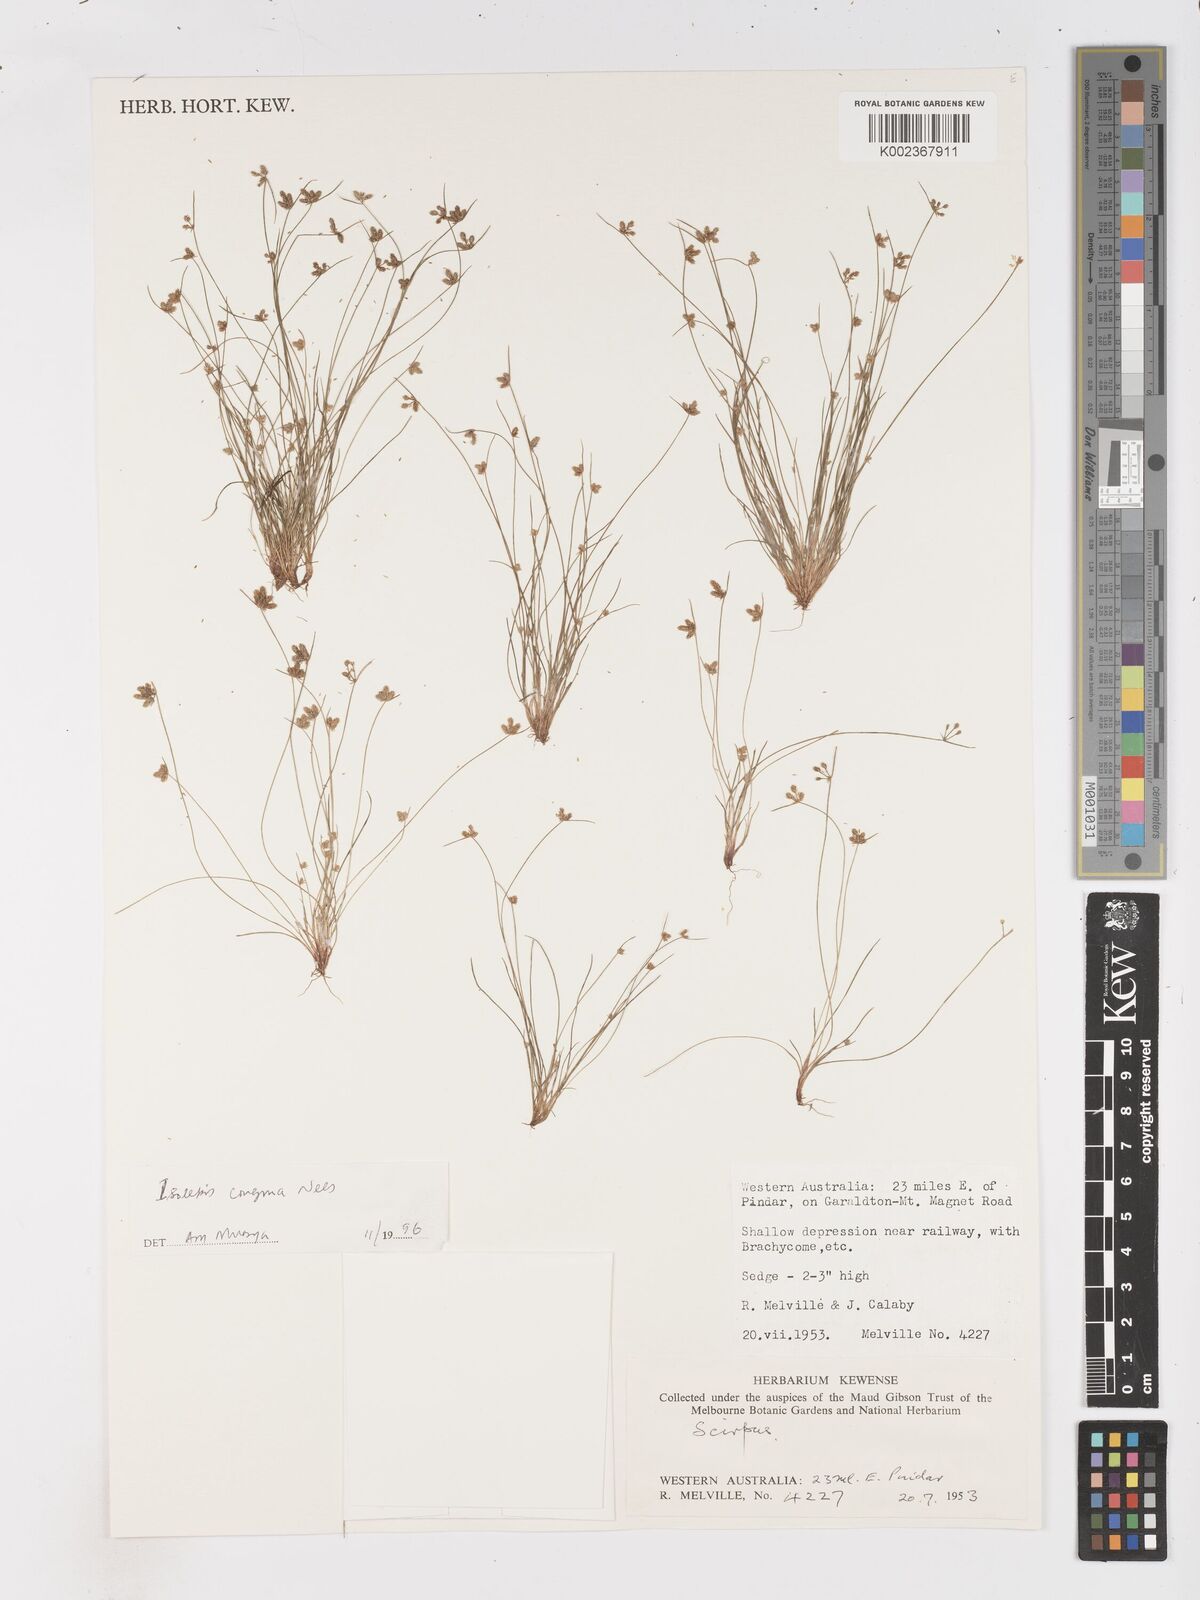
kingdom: Plantae
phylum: Tracheophyta
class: Liliopsida
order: Poales
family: Cyperaceae
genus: Isolepis
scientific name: Isolepis congrua
